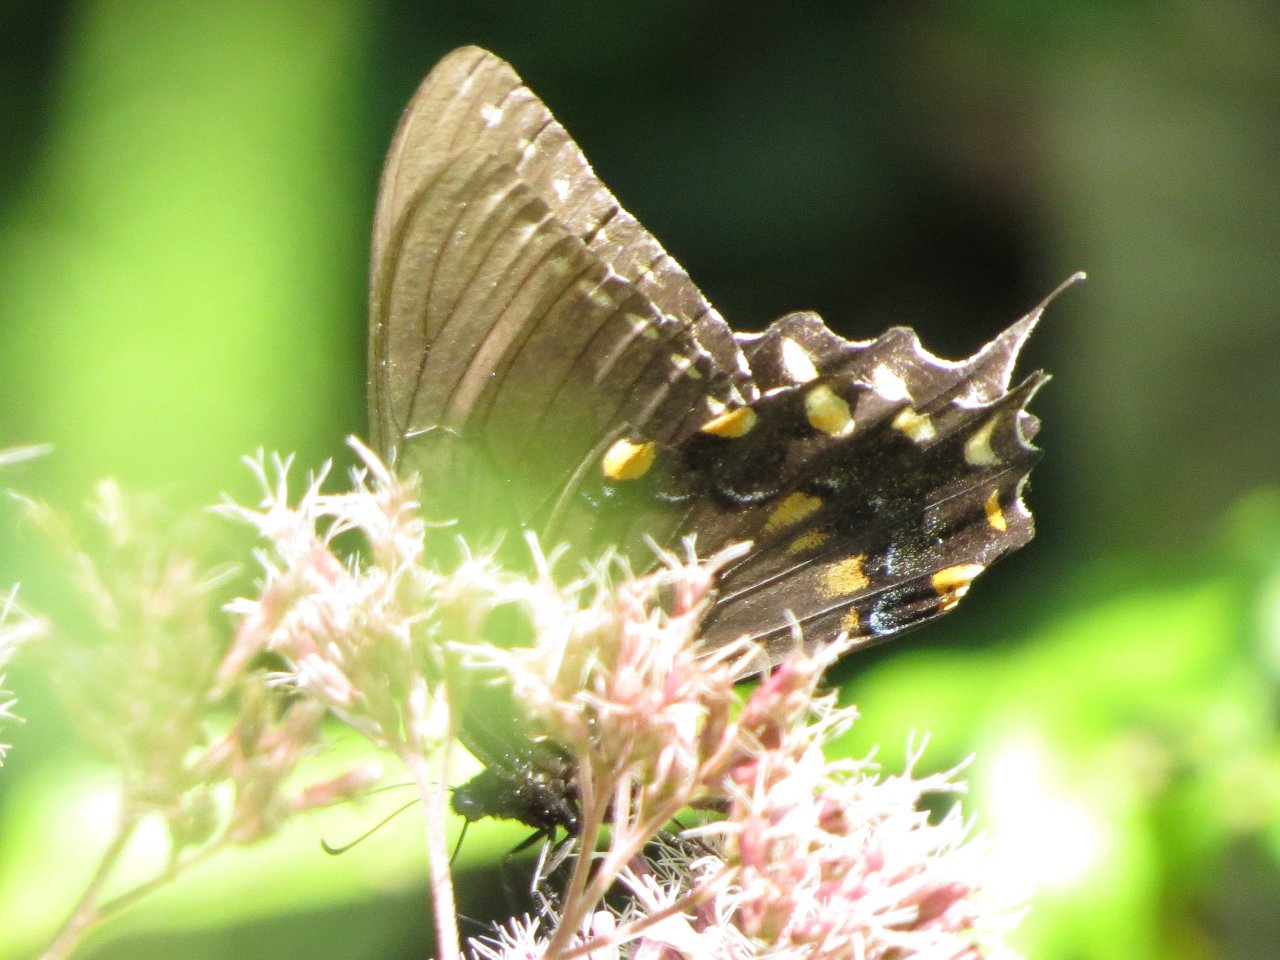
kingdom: Animalia
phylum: Arthropoda
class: Insecta
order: Lepidoptera
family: Papilionidae
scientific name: Papilionidae
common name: Swallowtails and Parnassians
